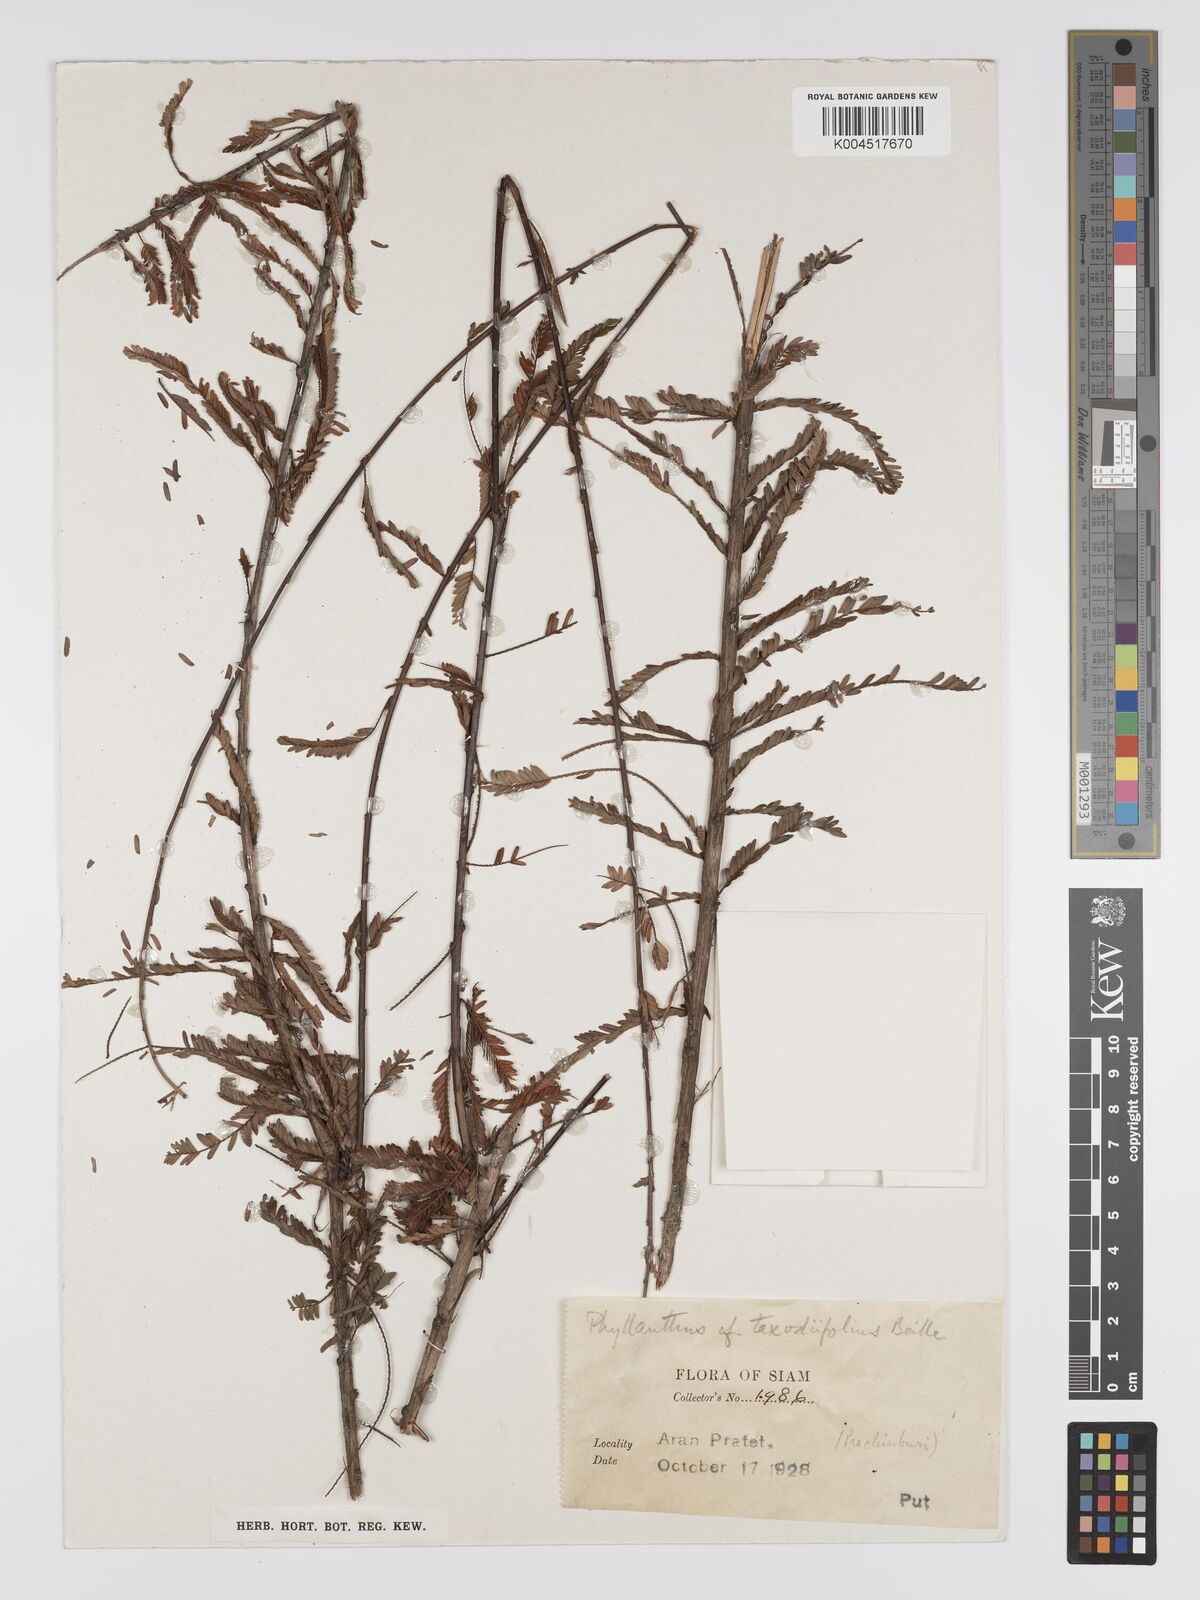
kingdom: Plantae
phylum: Tracheophyta
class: Magnoliopsida
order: Malpighiales
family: Phyllanthaceae
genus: Phyllanthus
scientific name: Phyllanthus taxodiifolius
